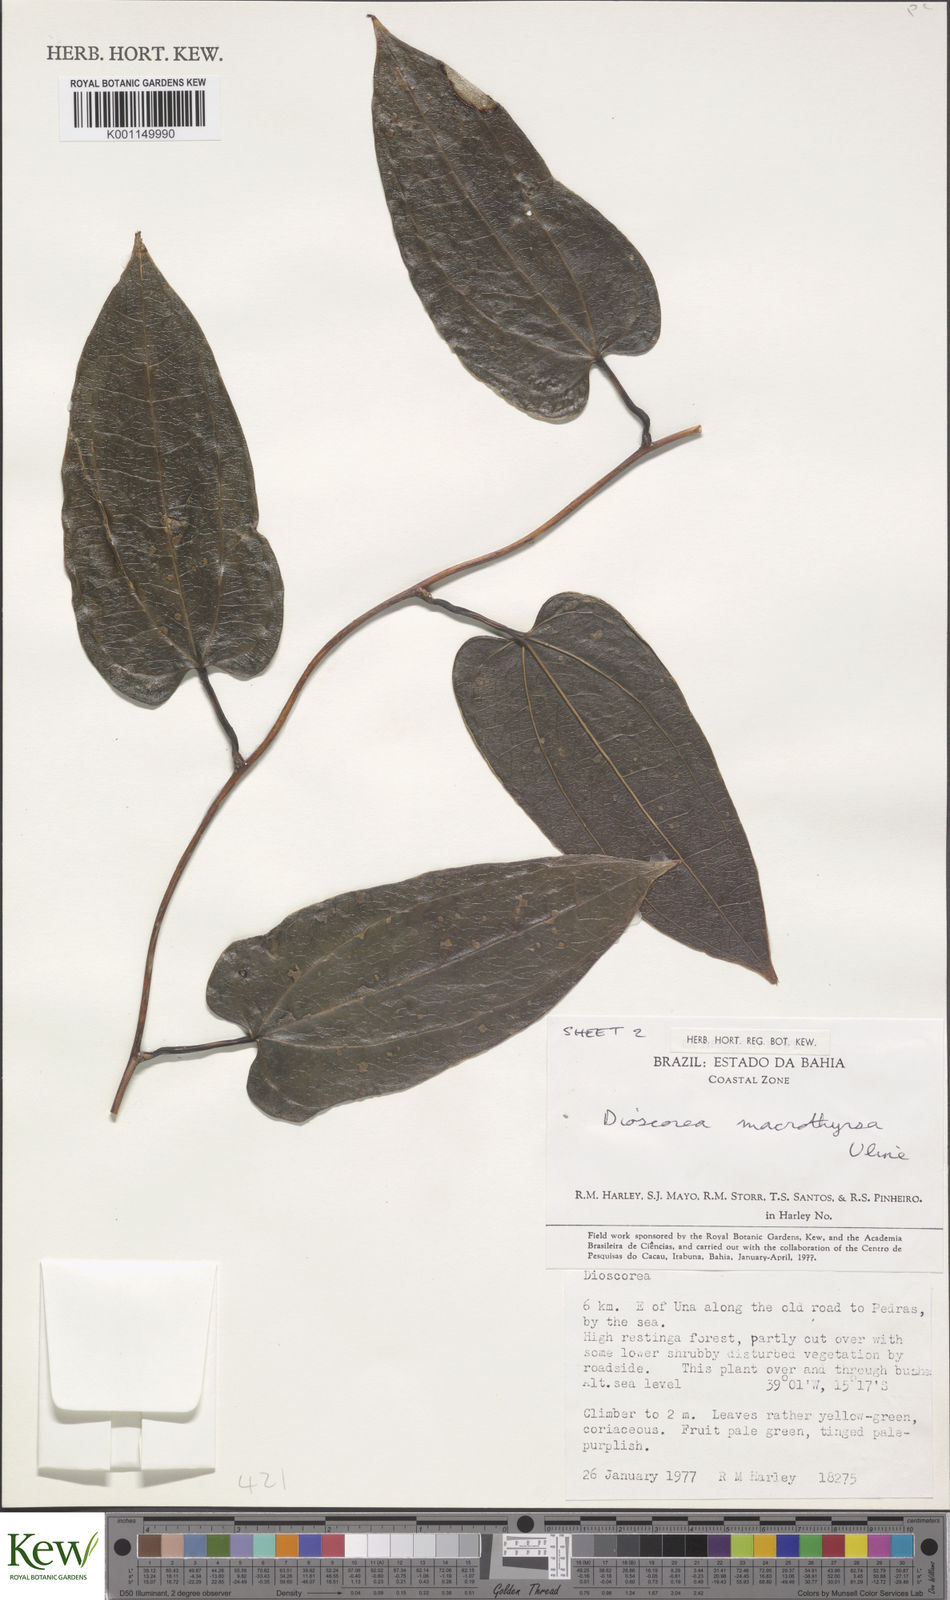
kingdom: Plantae
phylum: Tracheophyta
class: Liliopsida
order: Dioscoreales
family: Dioscoreaceae
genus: Dioscorea
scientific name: Dioscorea macrothyrsa
